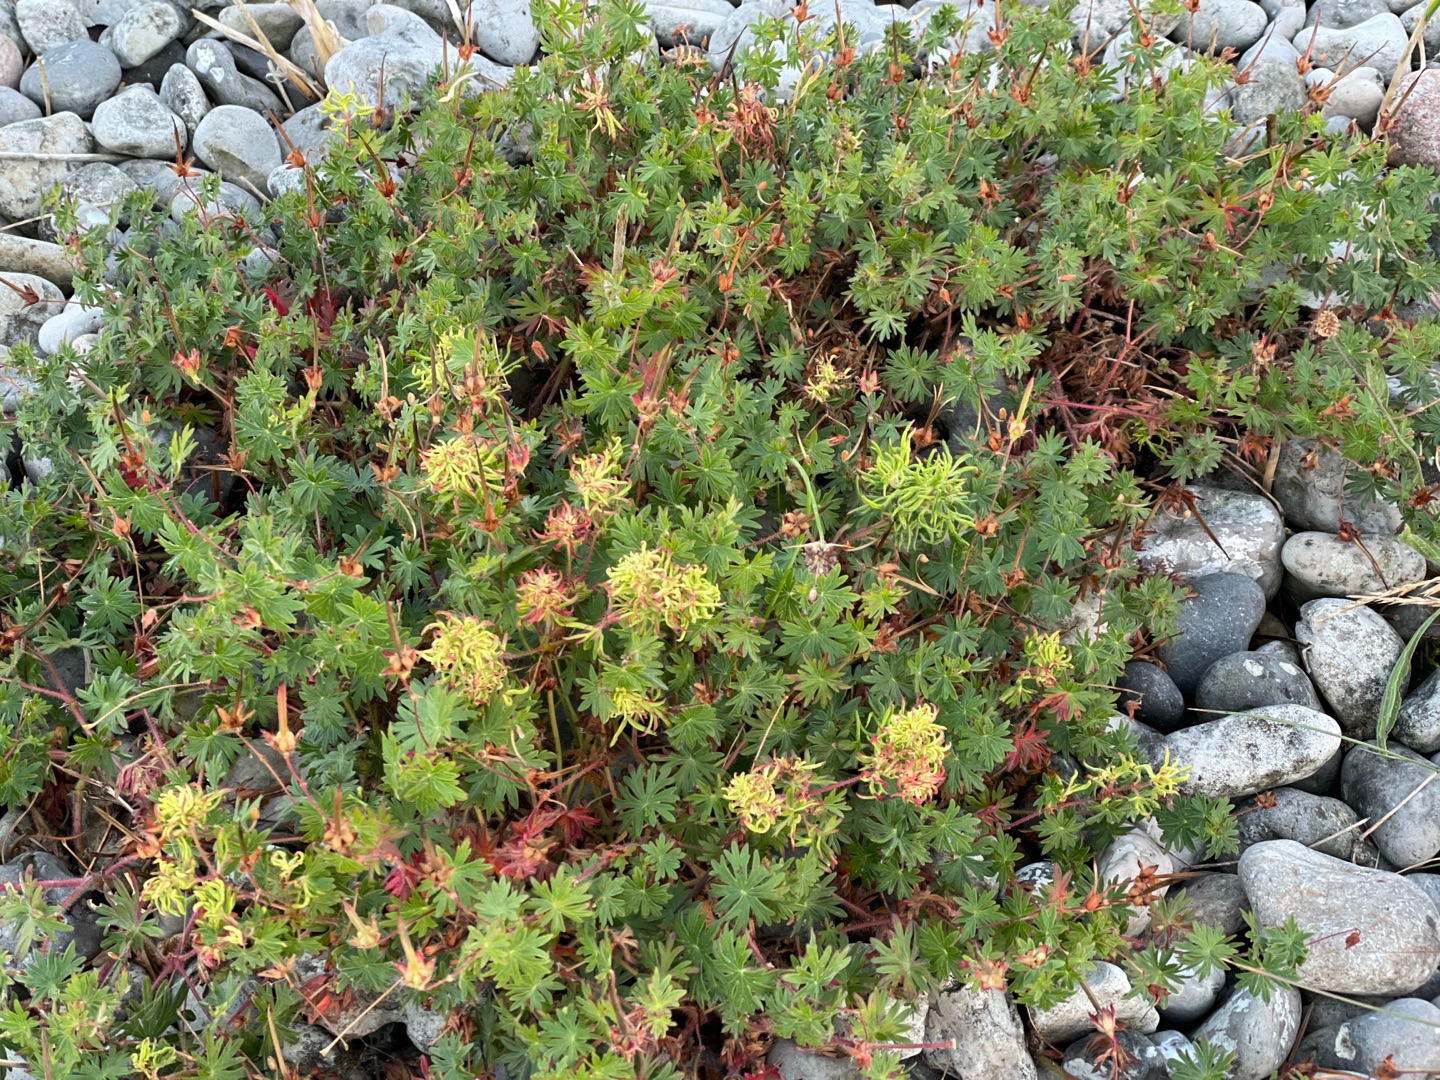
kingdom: Plantae
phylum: Tracheophyta
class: Magnoliopsida
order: Geraniales
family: Geraniaceae
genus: Geranium
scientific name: Geranium sanguineum
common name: Blodrød storkenæb
